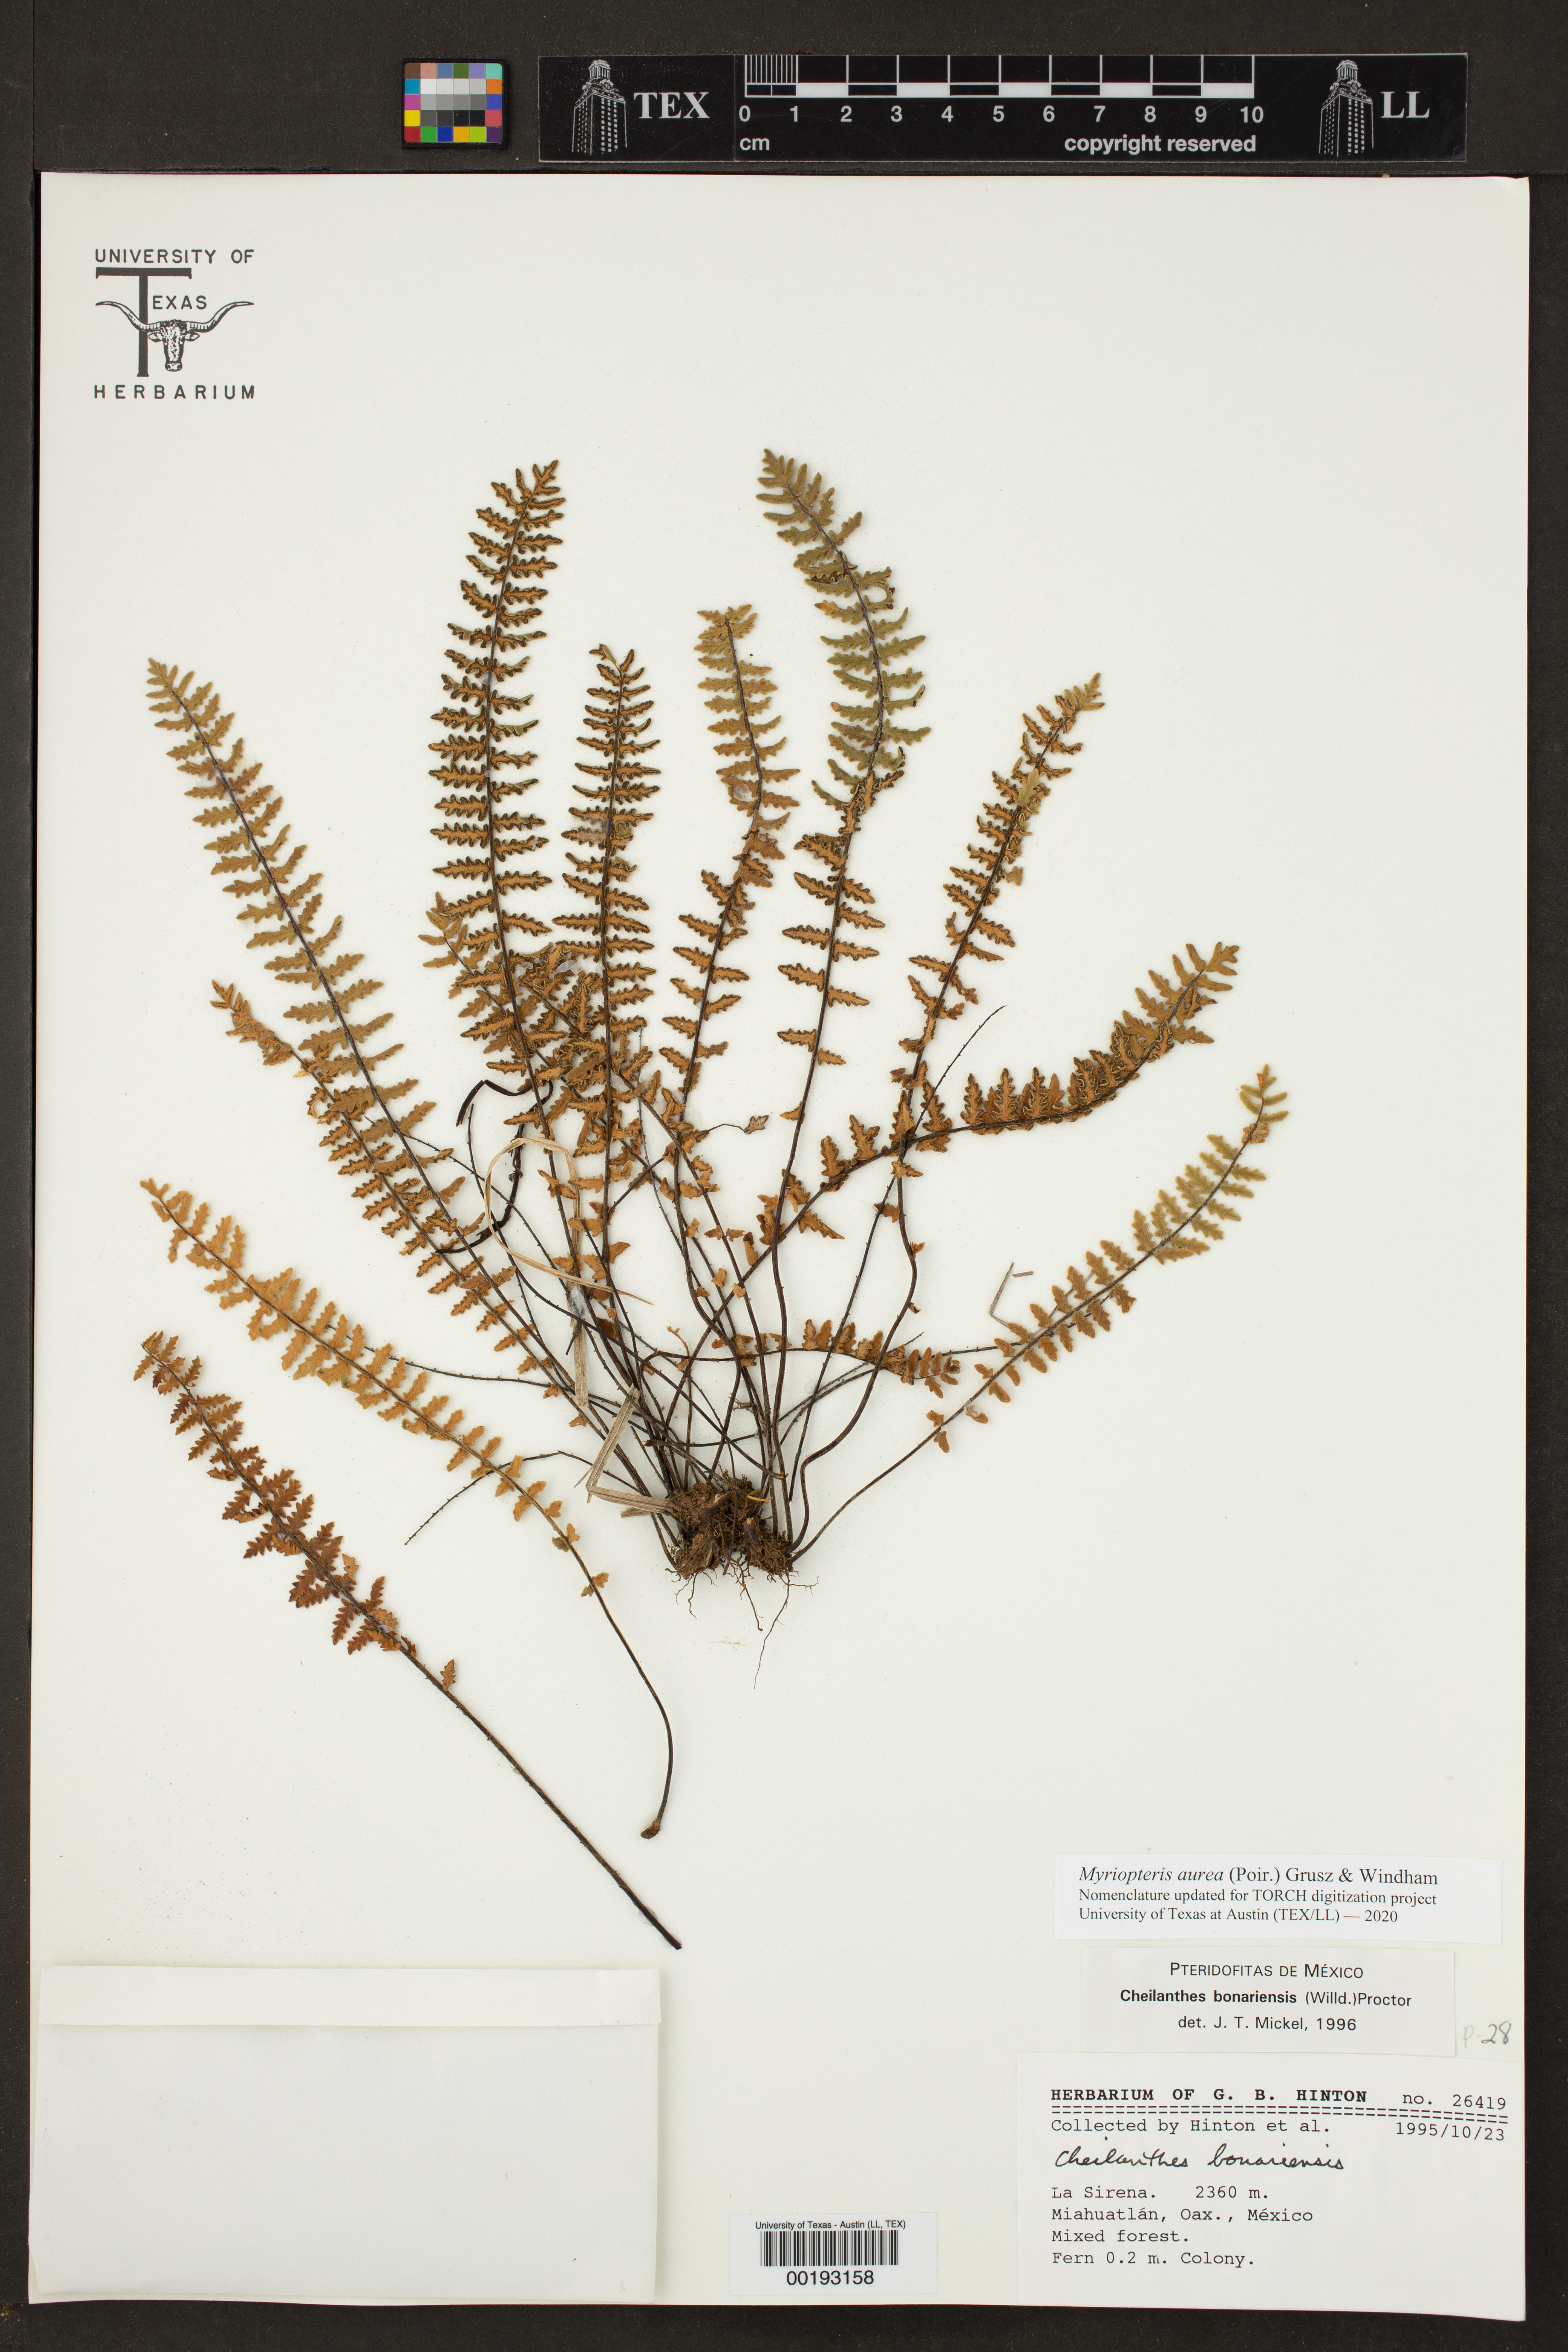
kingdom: Plantae
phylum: Tracheophyta
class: Polypodiopsida
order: Polypodiales
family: Pteridaceae
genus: Myriopteris
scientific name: Myriopteris aurea
